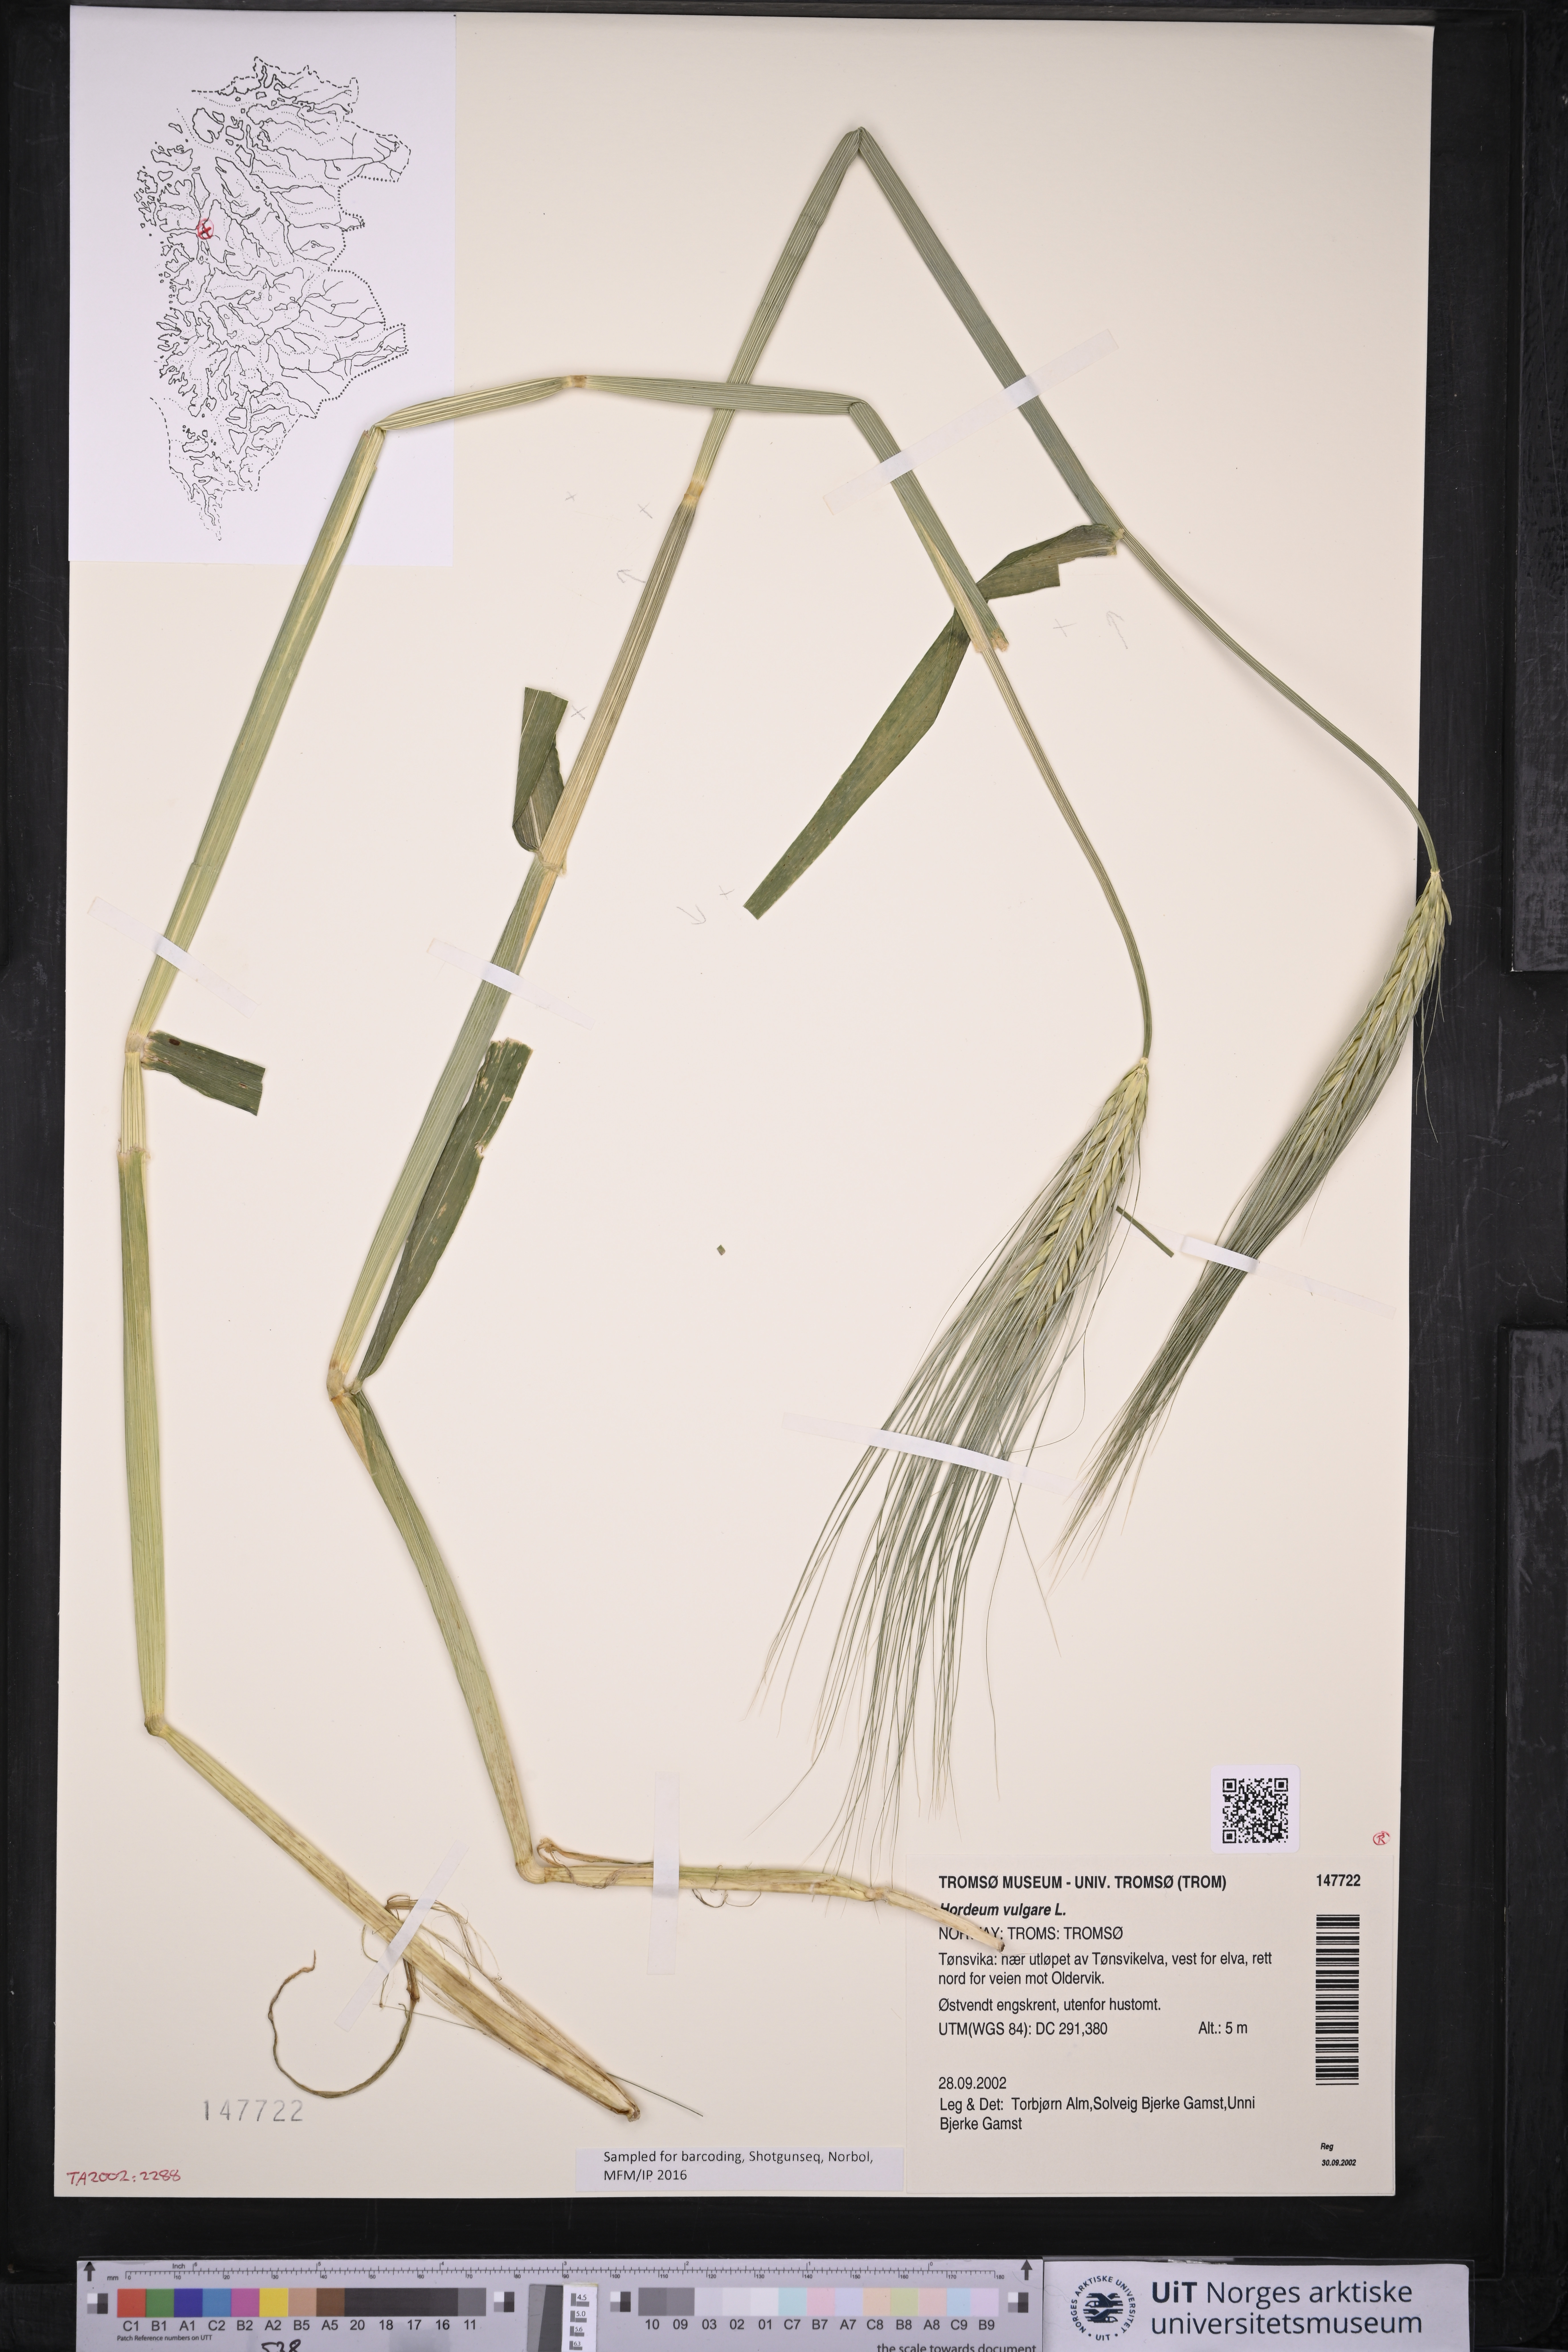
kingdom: Plantae
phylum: Tracheophyta
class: Liliopsida
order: Poales
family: Poaceae
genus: Hordeum
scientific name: Hordeum vulgare
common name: Common barley
